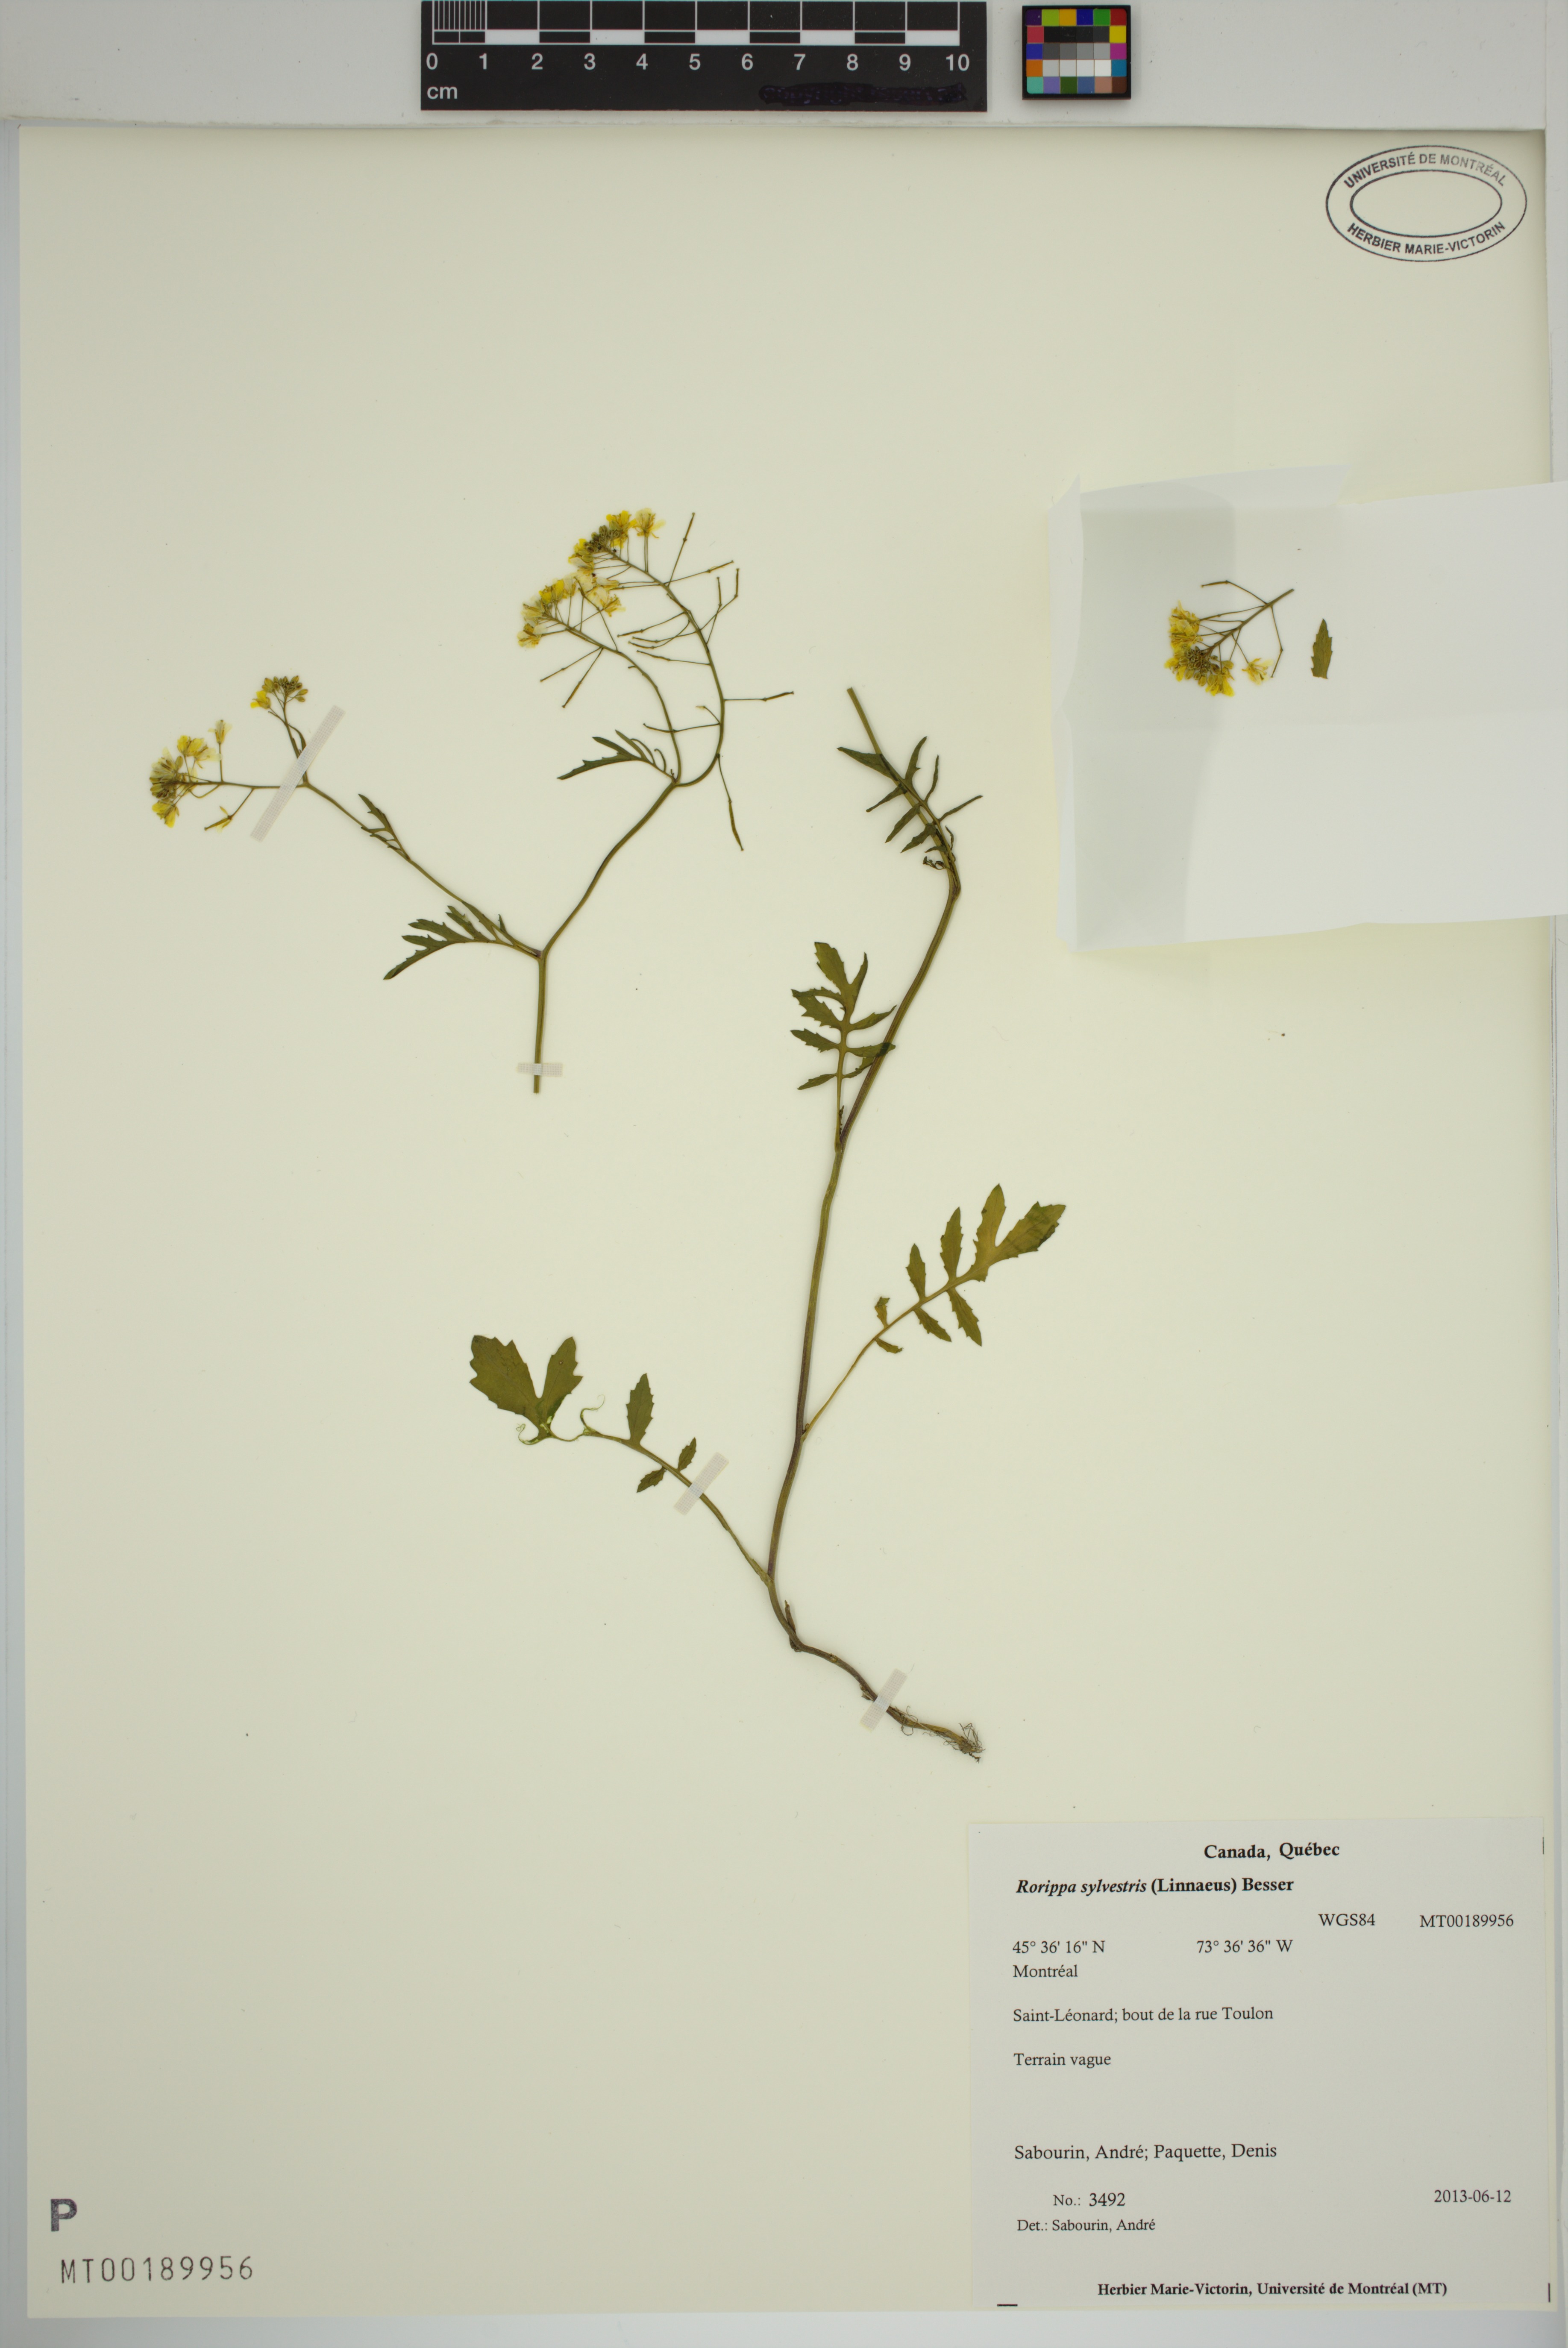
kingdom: Plantae
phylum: Tracheophyta
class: Magnoliopsida
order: Brassicales
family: Brassicaceae
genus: Rorippa
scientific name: Rorippa sylvestris
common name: Creeping yellowcress
